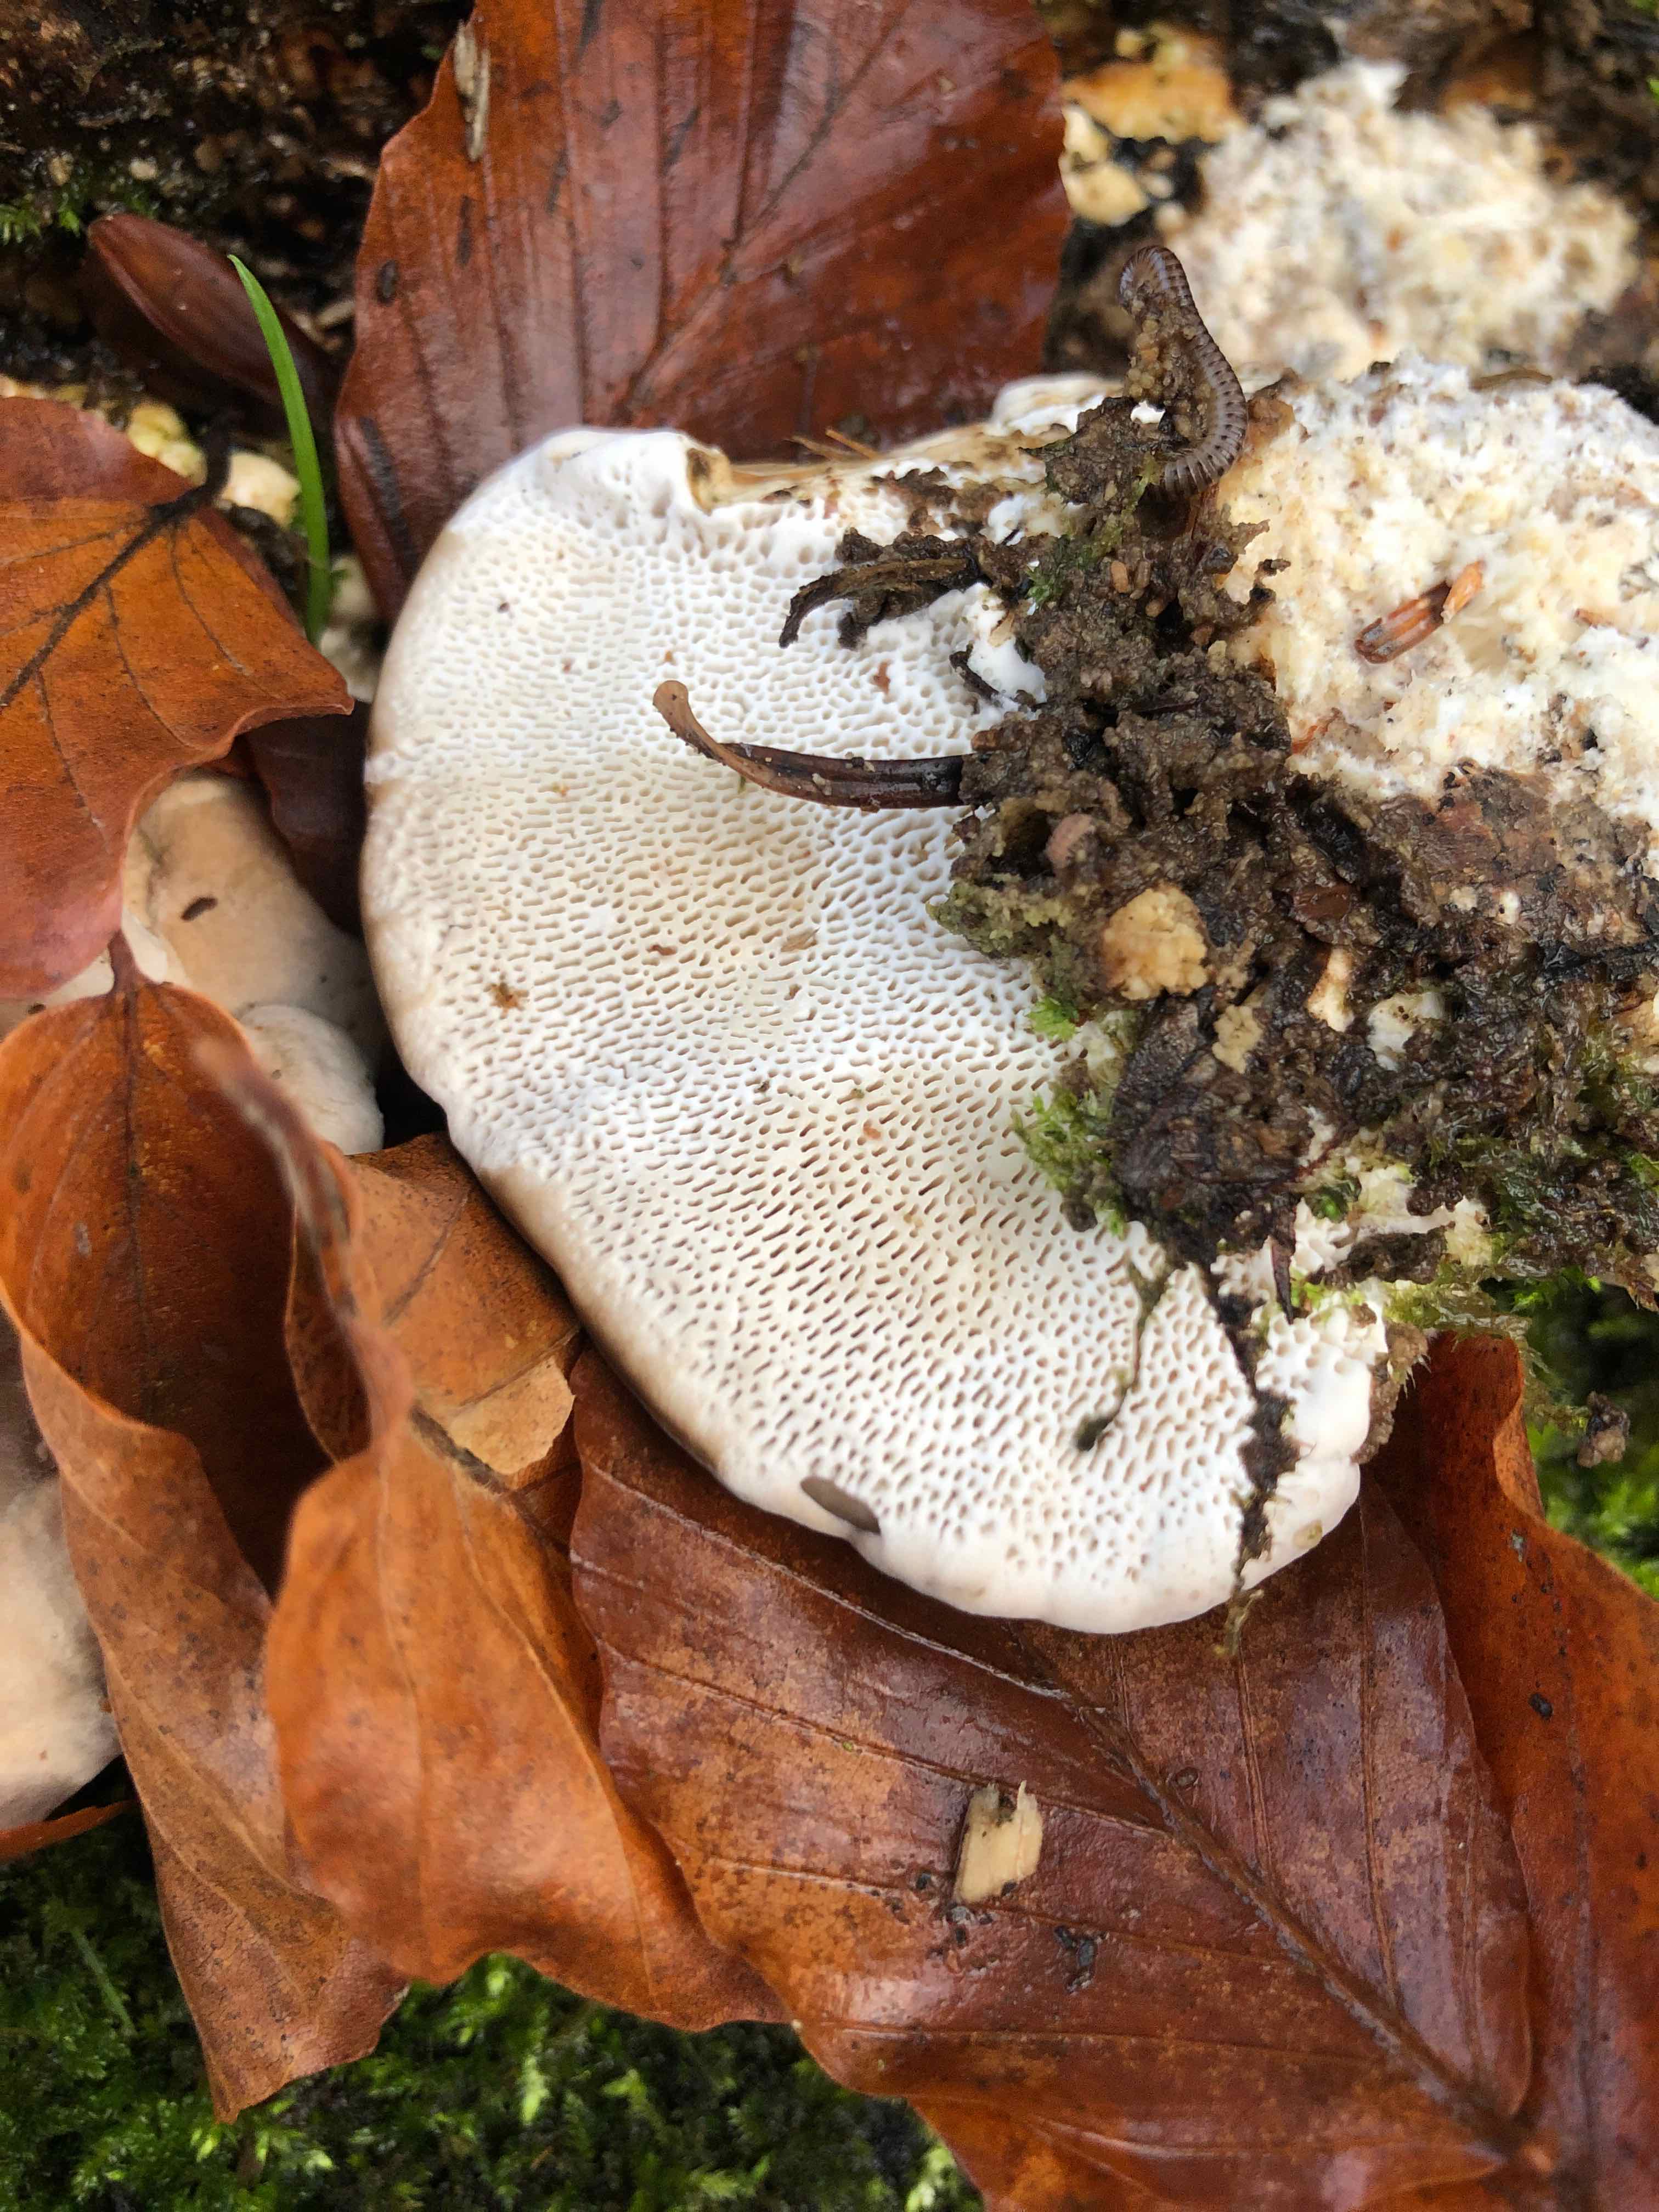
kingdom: Fungi
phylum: Basidiomycota
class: Agaricomycetes
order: Polyporales
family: Polyporaceae
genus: Trametes
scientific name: Trametes gibbosa
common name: puklet læderporesvamp
